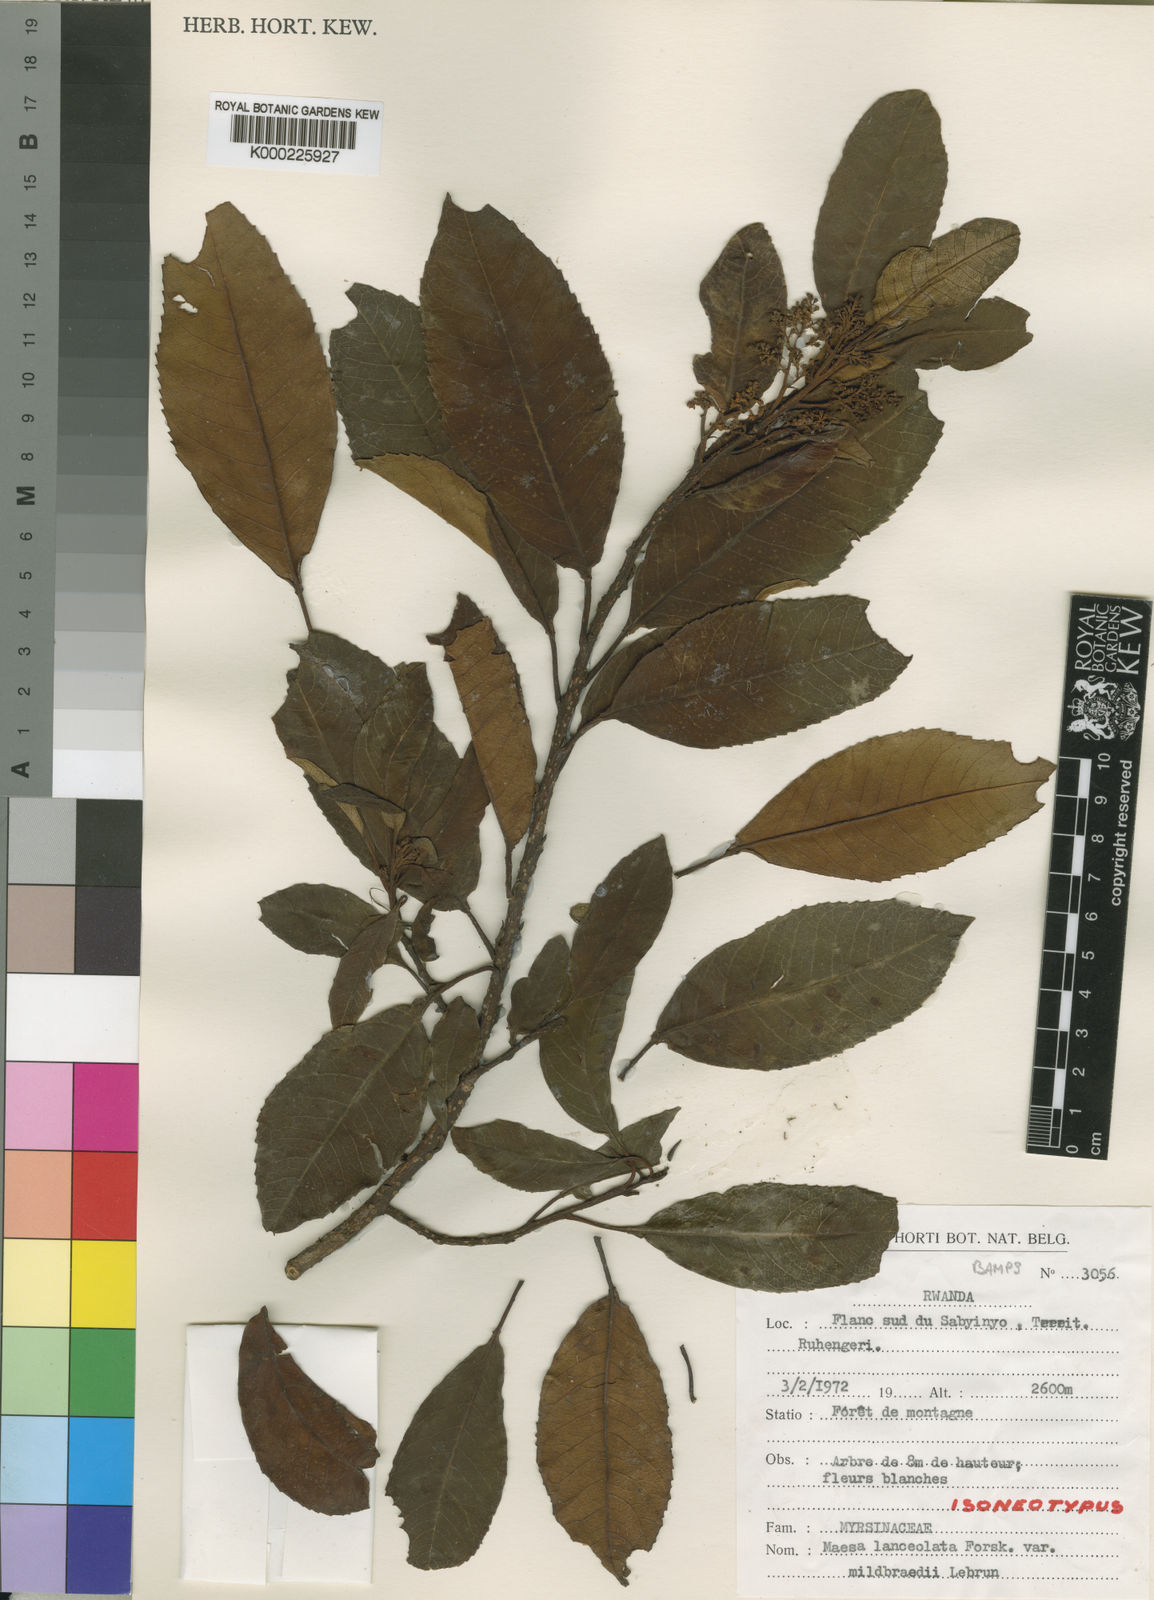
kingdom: Plantae
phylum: Tracheophyta
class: Magnoliopsida
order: Ericales
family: Primulaceae
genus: Maesa
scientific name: Maesa lanceolata
